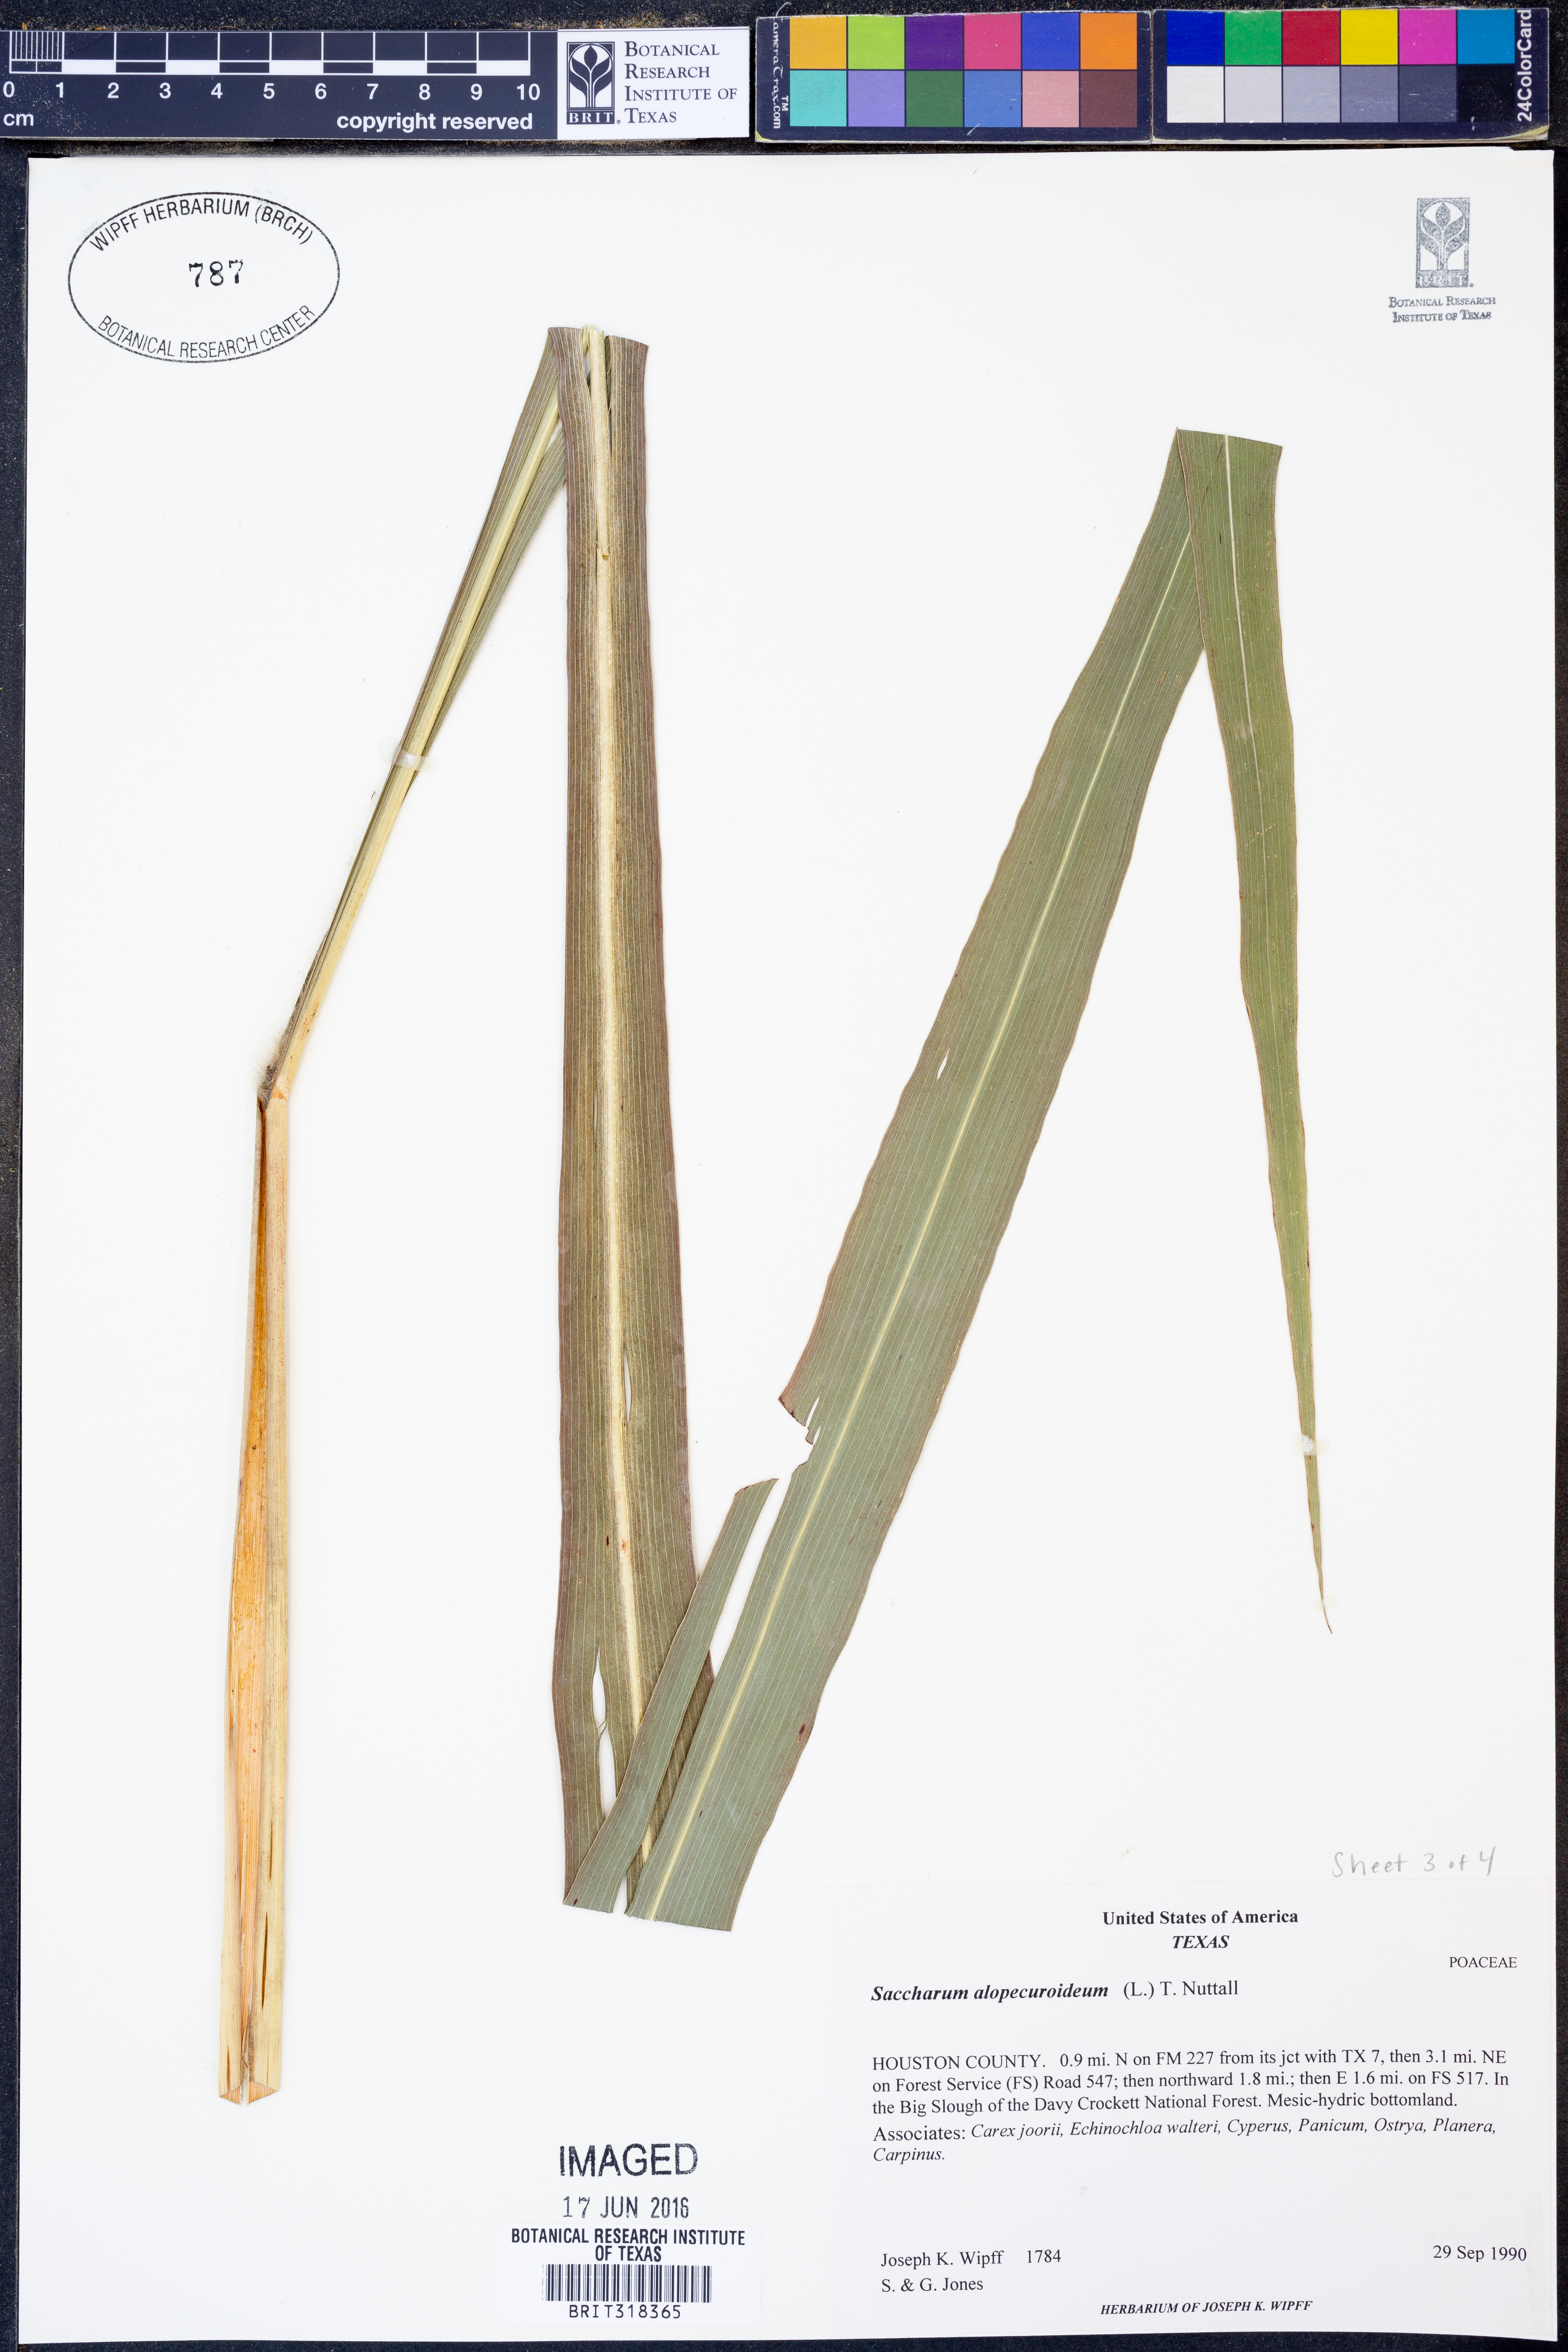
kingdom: Plantae
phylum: Tracheophyta
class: Liliopsida
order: Poales
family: Poaceae
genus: Erianthus
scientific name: Erianthus alopecuroides
